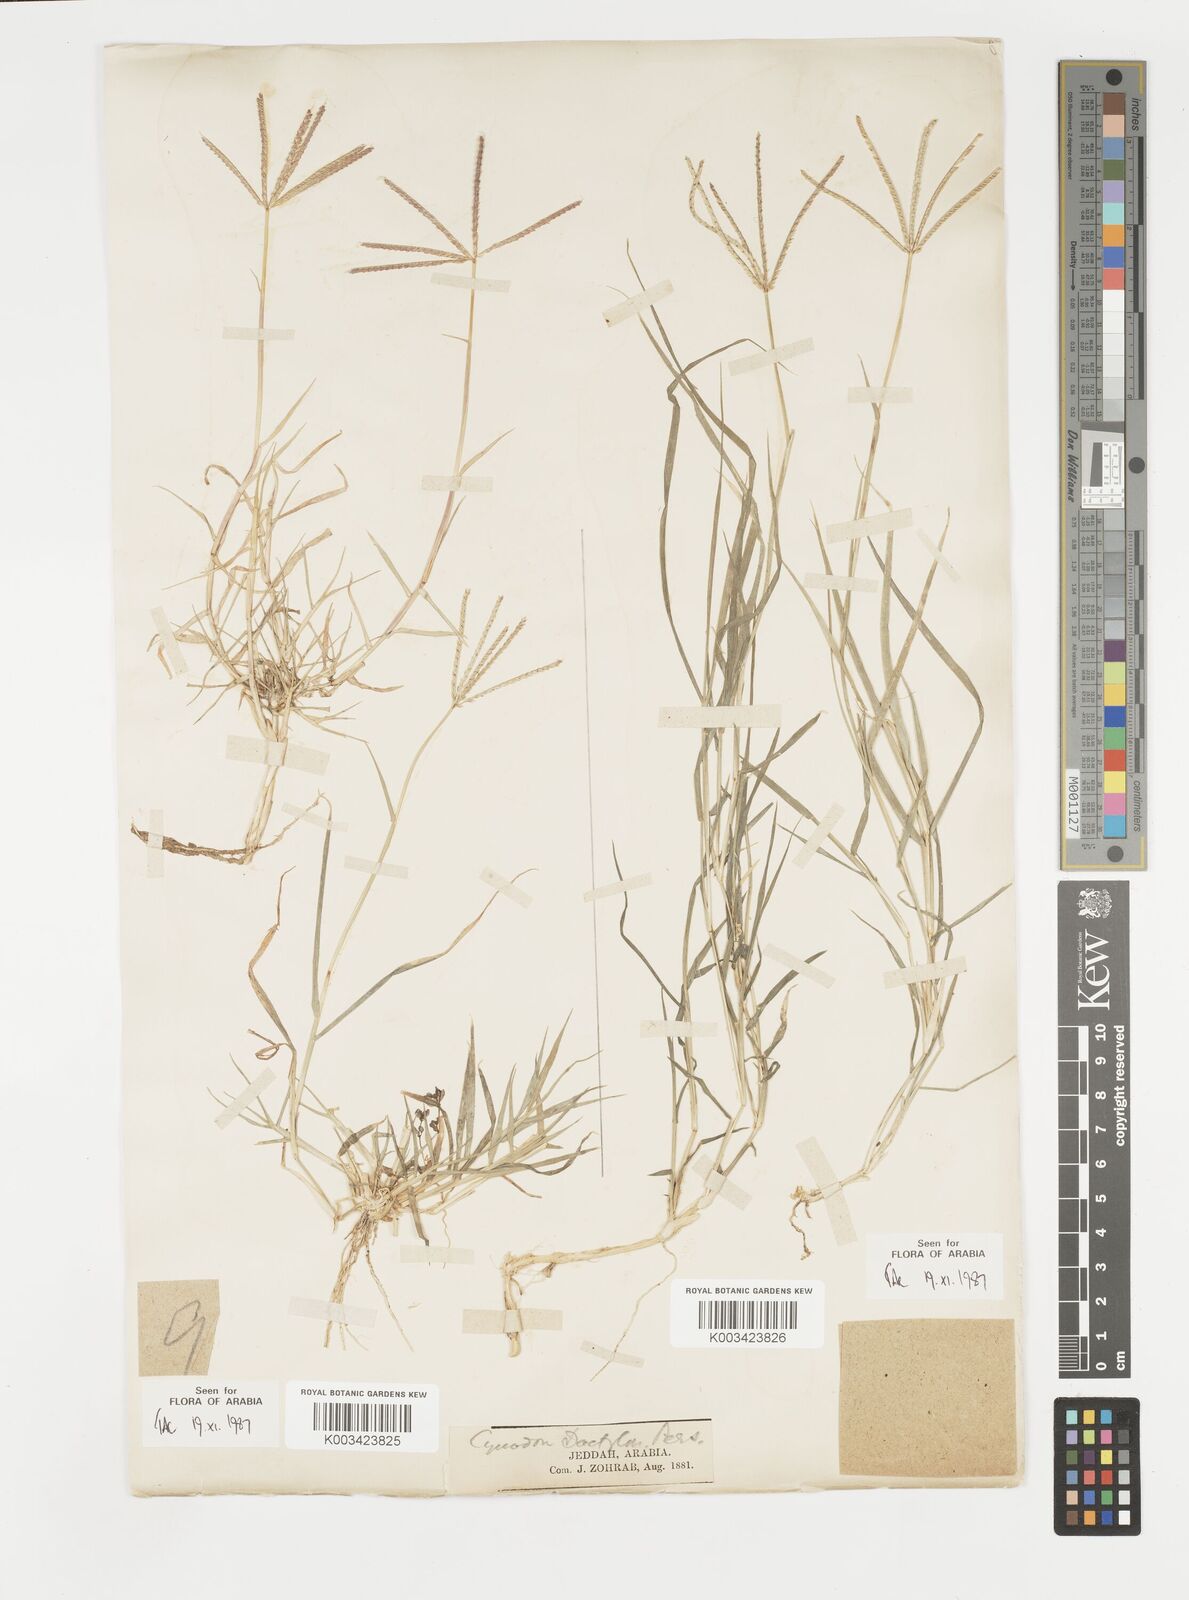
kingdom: Plantae
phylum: Tracheophyta
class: Liliopsida
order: Poales
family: Poaceae
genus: Cynodon
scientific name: Cynodon dactylon
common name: Bermuda grass
